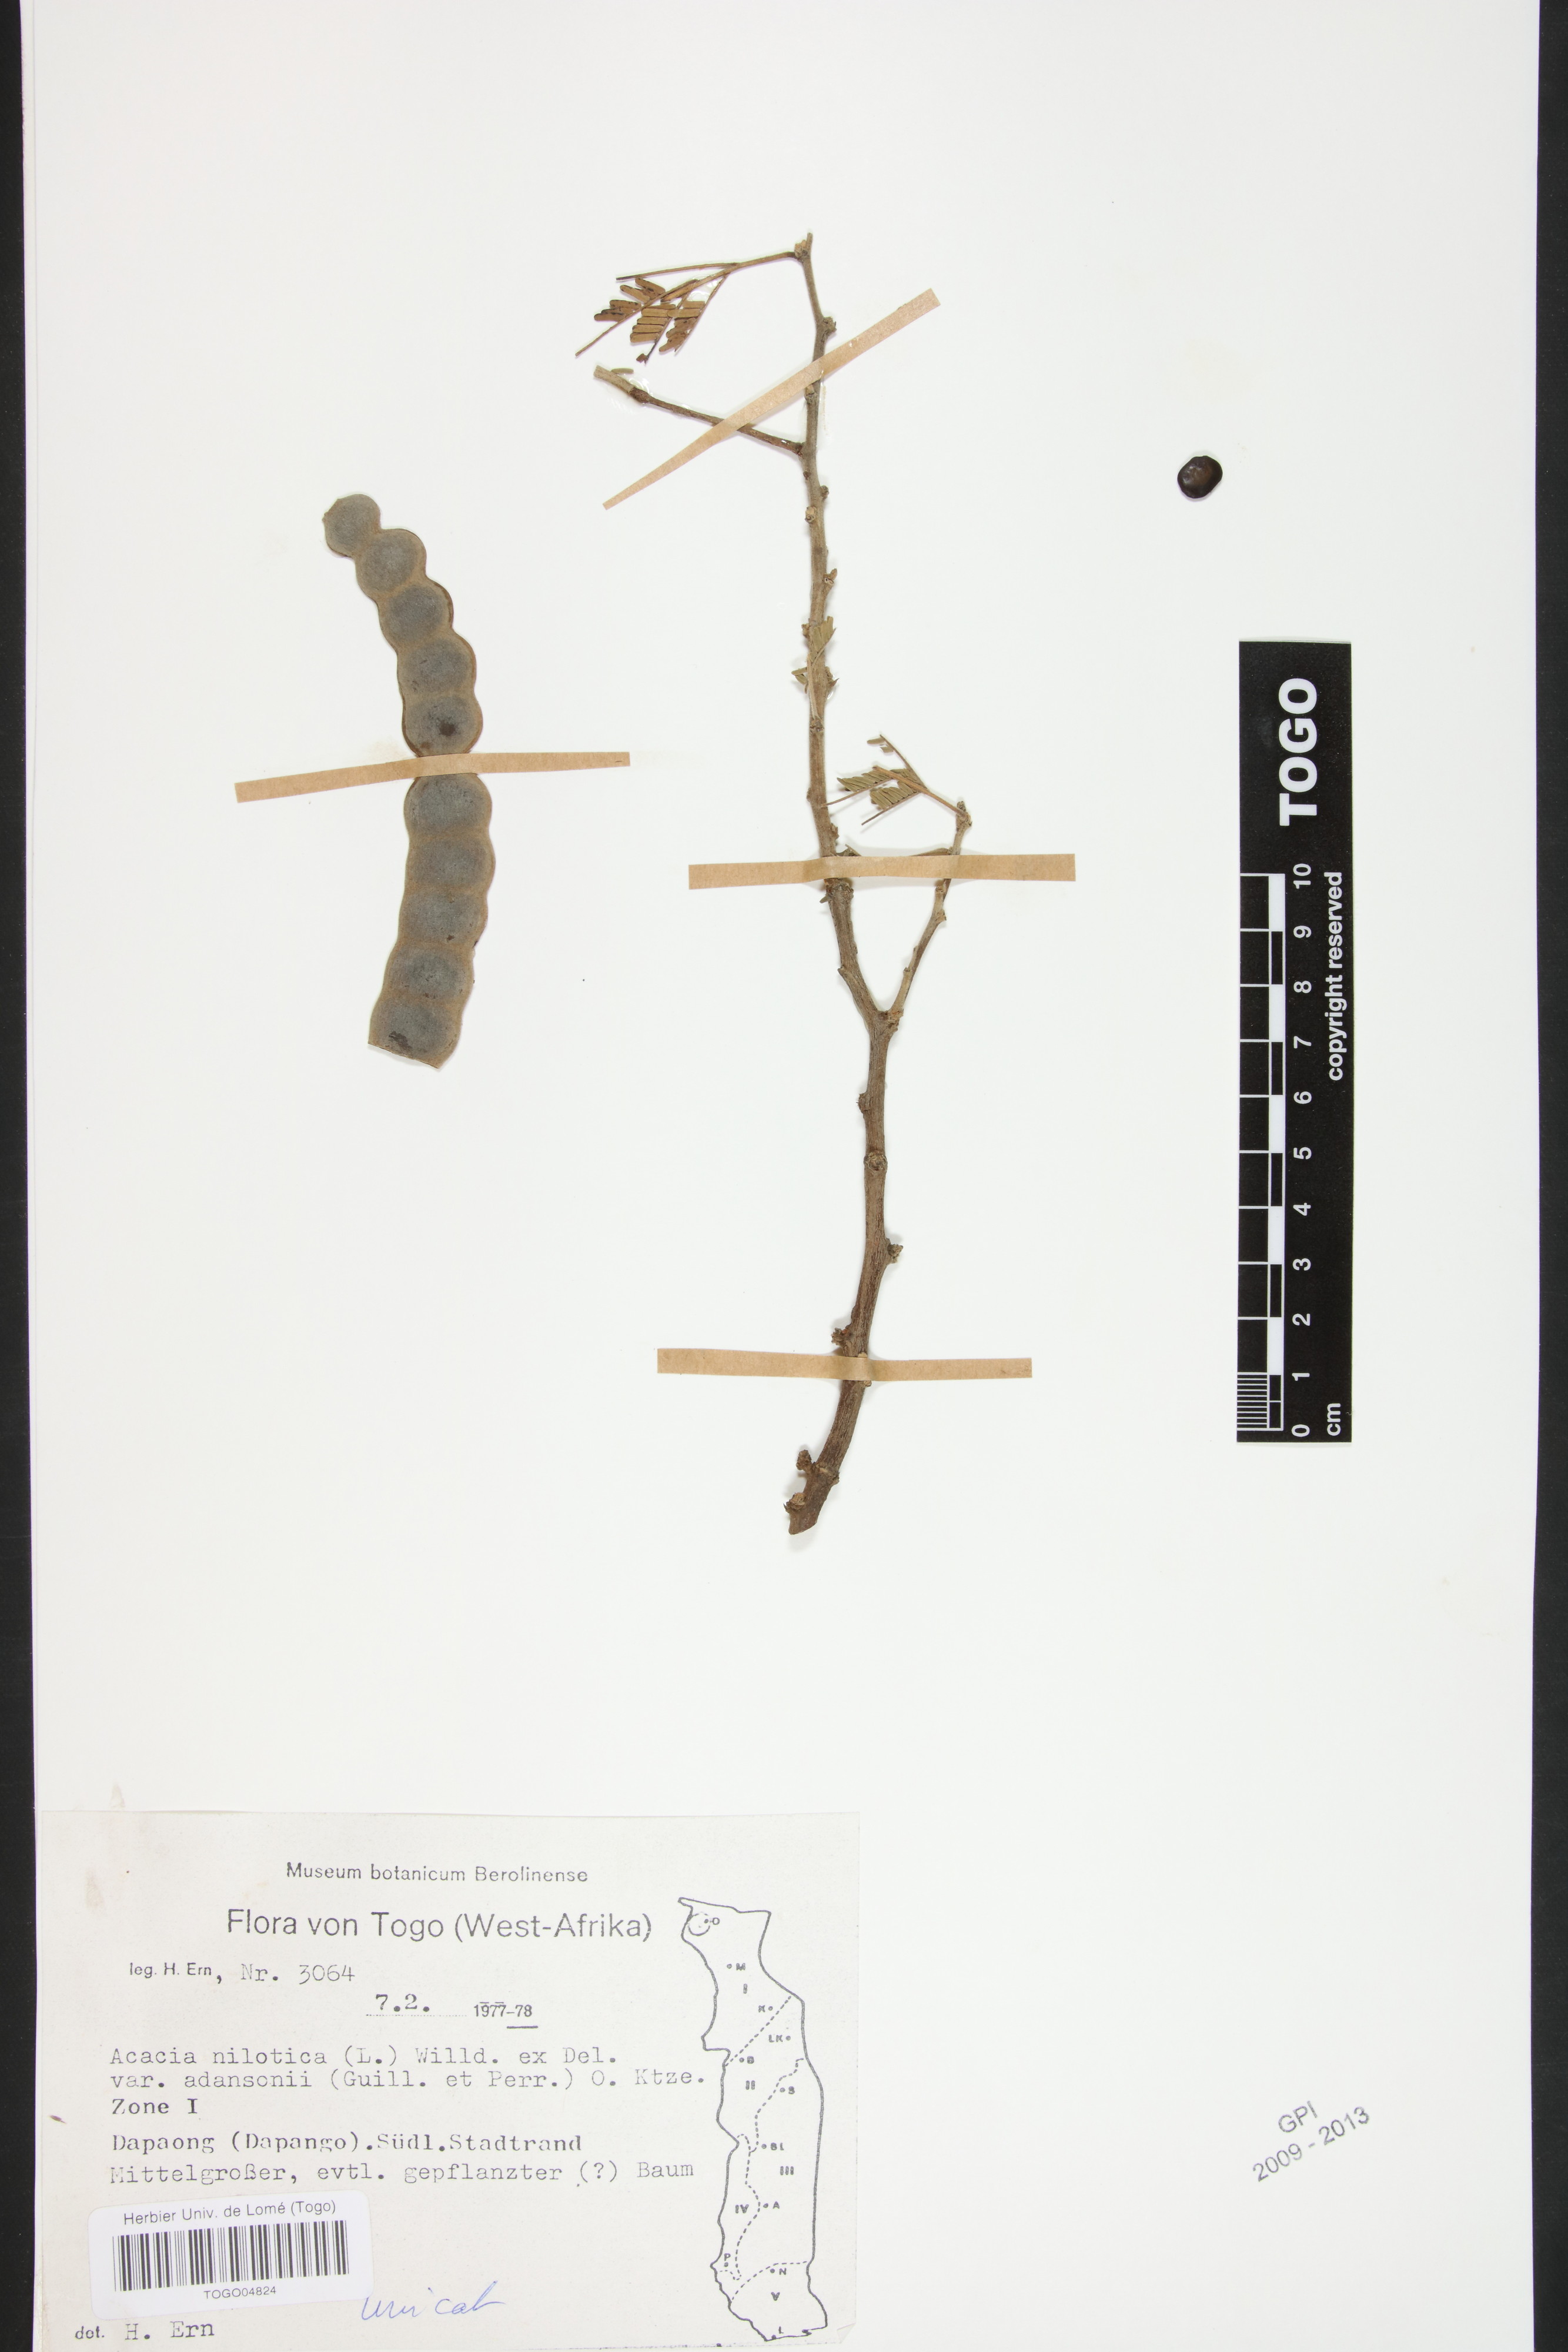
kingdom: Plantae
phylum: Tracheophyta
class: Magnoliopsida
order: Fabales
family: Fabaceae
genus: Vachellia
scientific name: Vachellia nilotica
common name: Arabic gumtree
